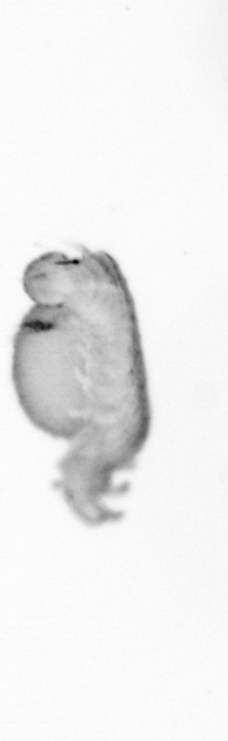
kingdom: Animalia
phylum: Annelida
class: Polychaeta
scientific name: Polychaeta
